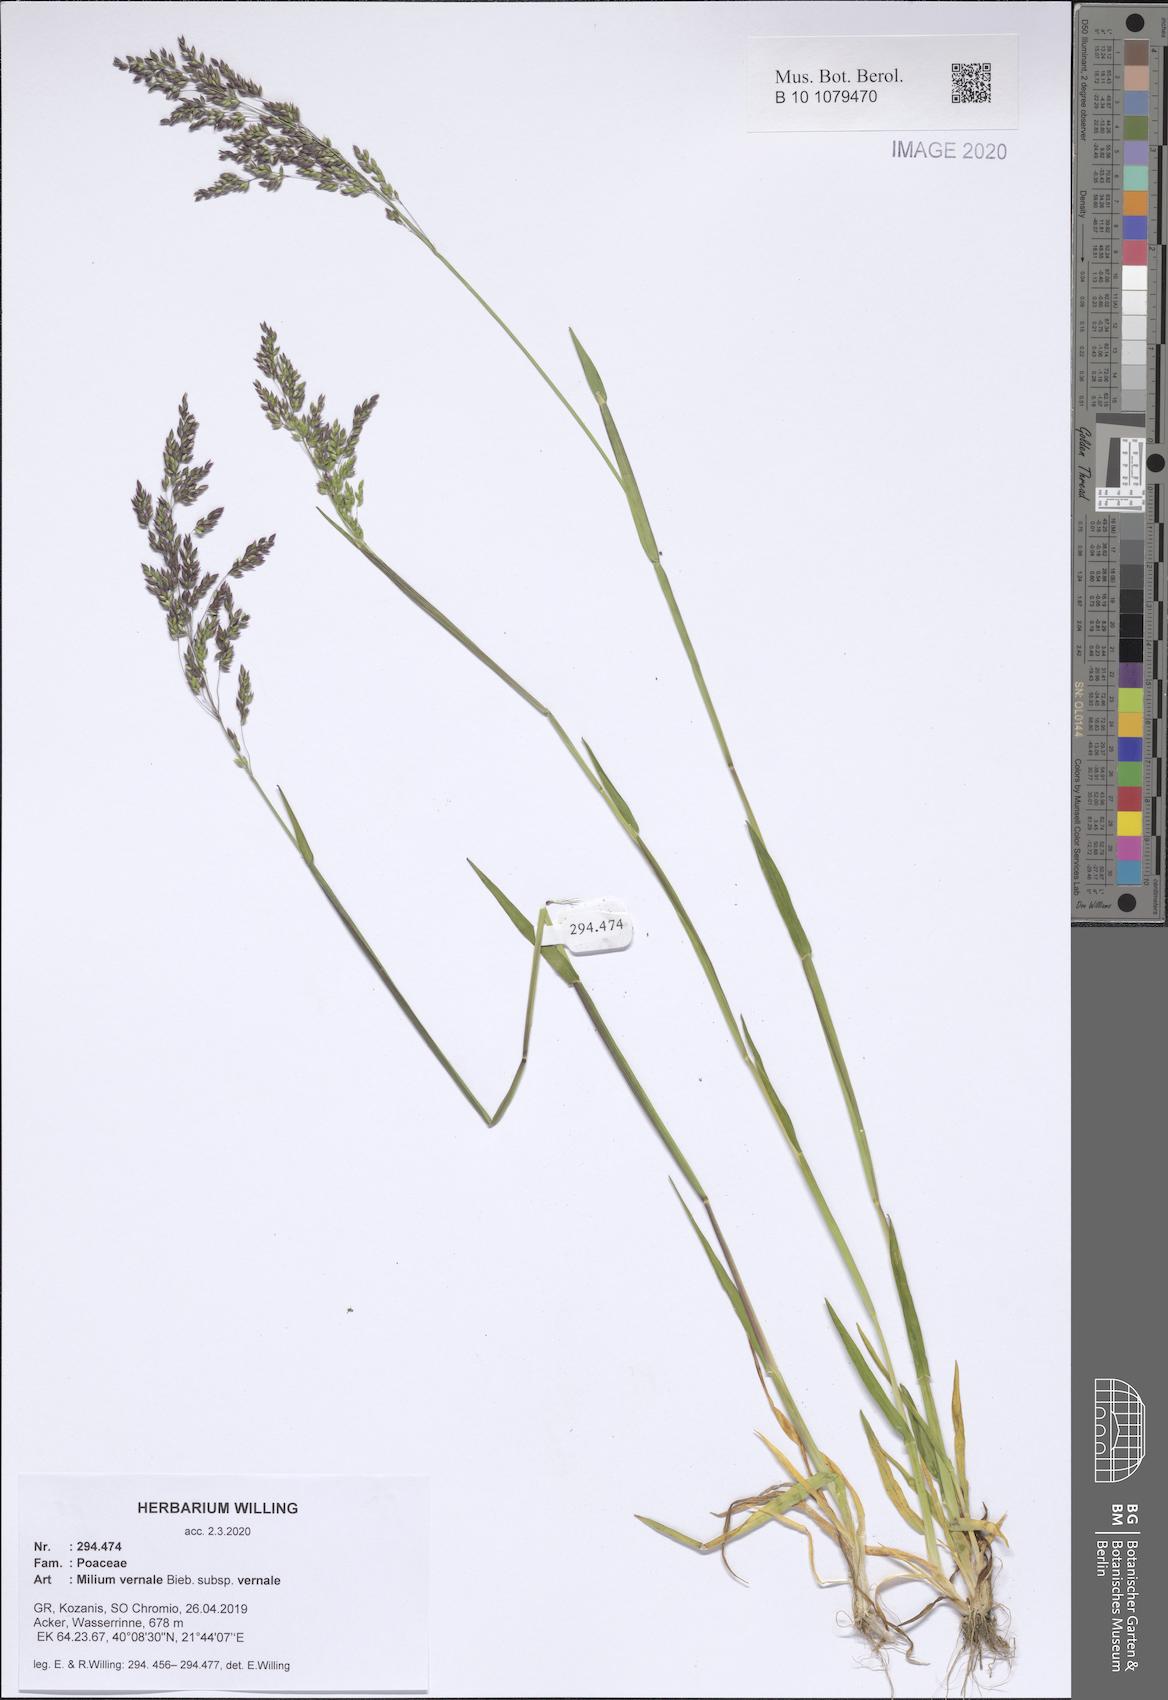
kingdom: Plantae
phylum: Tracheophyta
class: Liliopsida
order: Poales
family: Poaceae
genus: Milium
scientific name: Milium vernale
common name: Early millet
